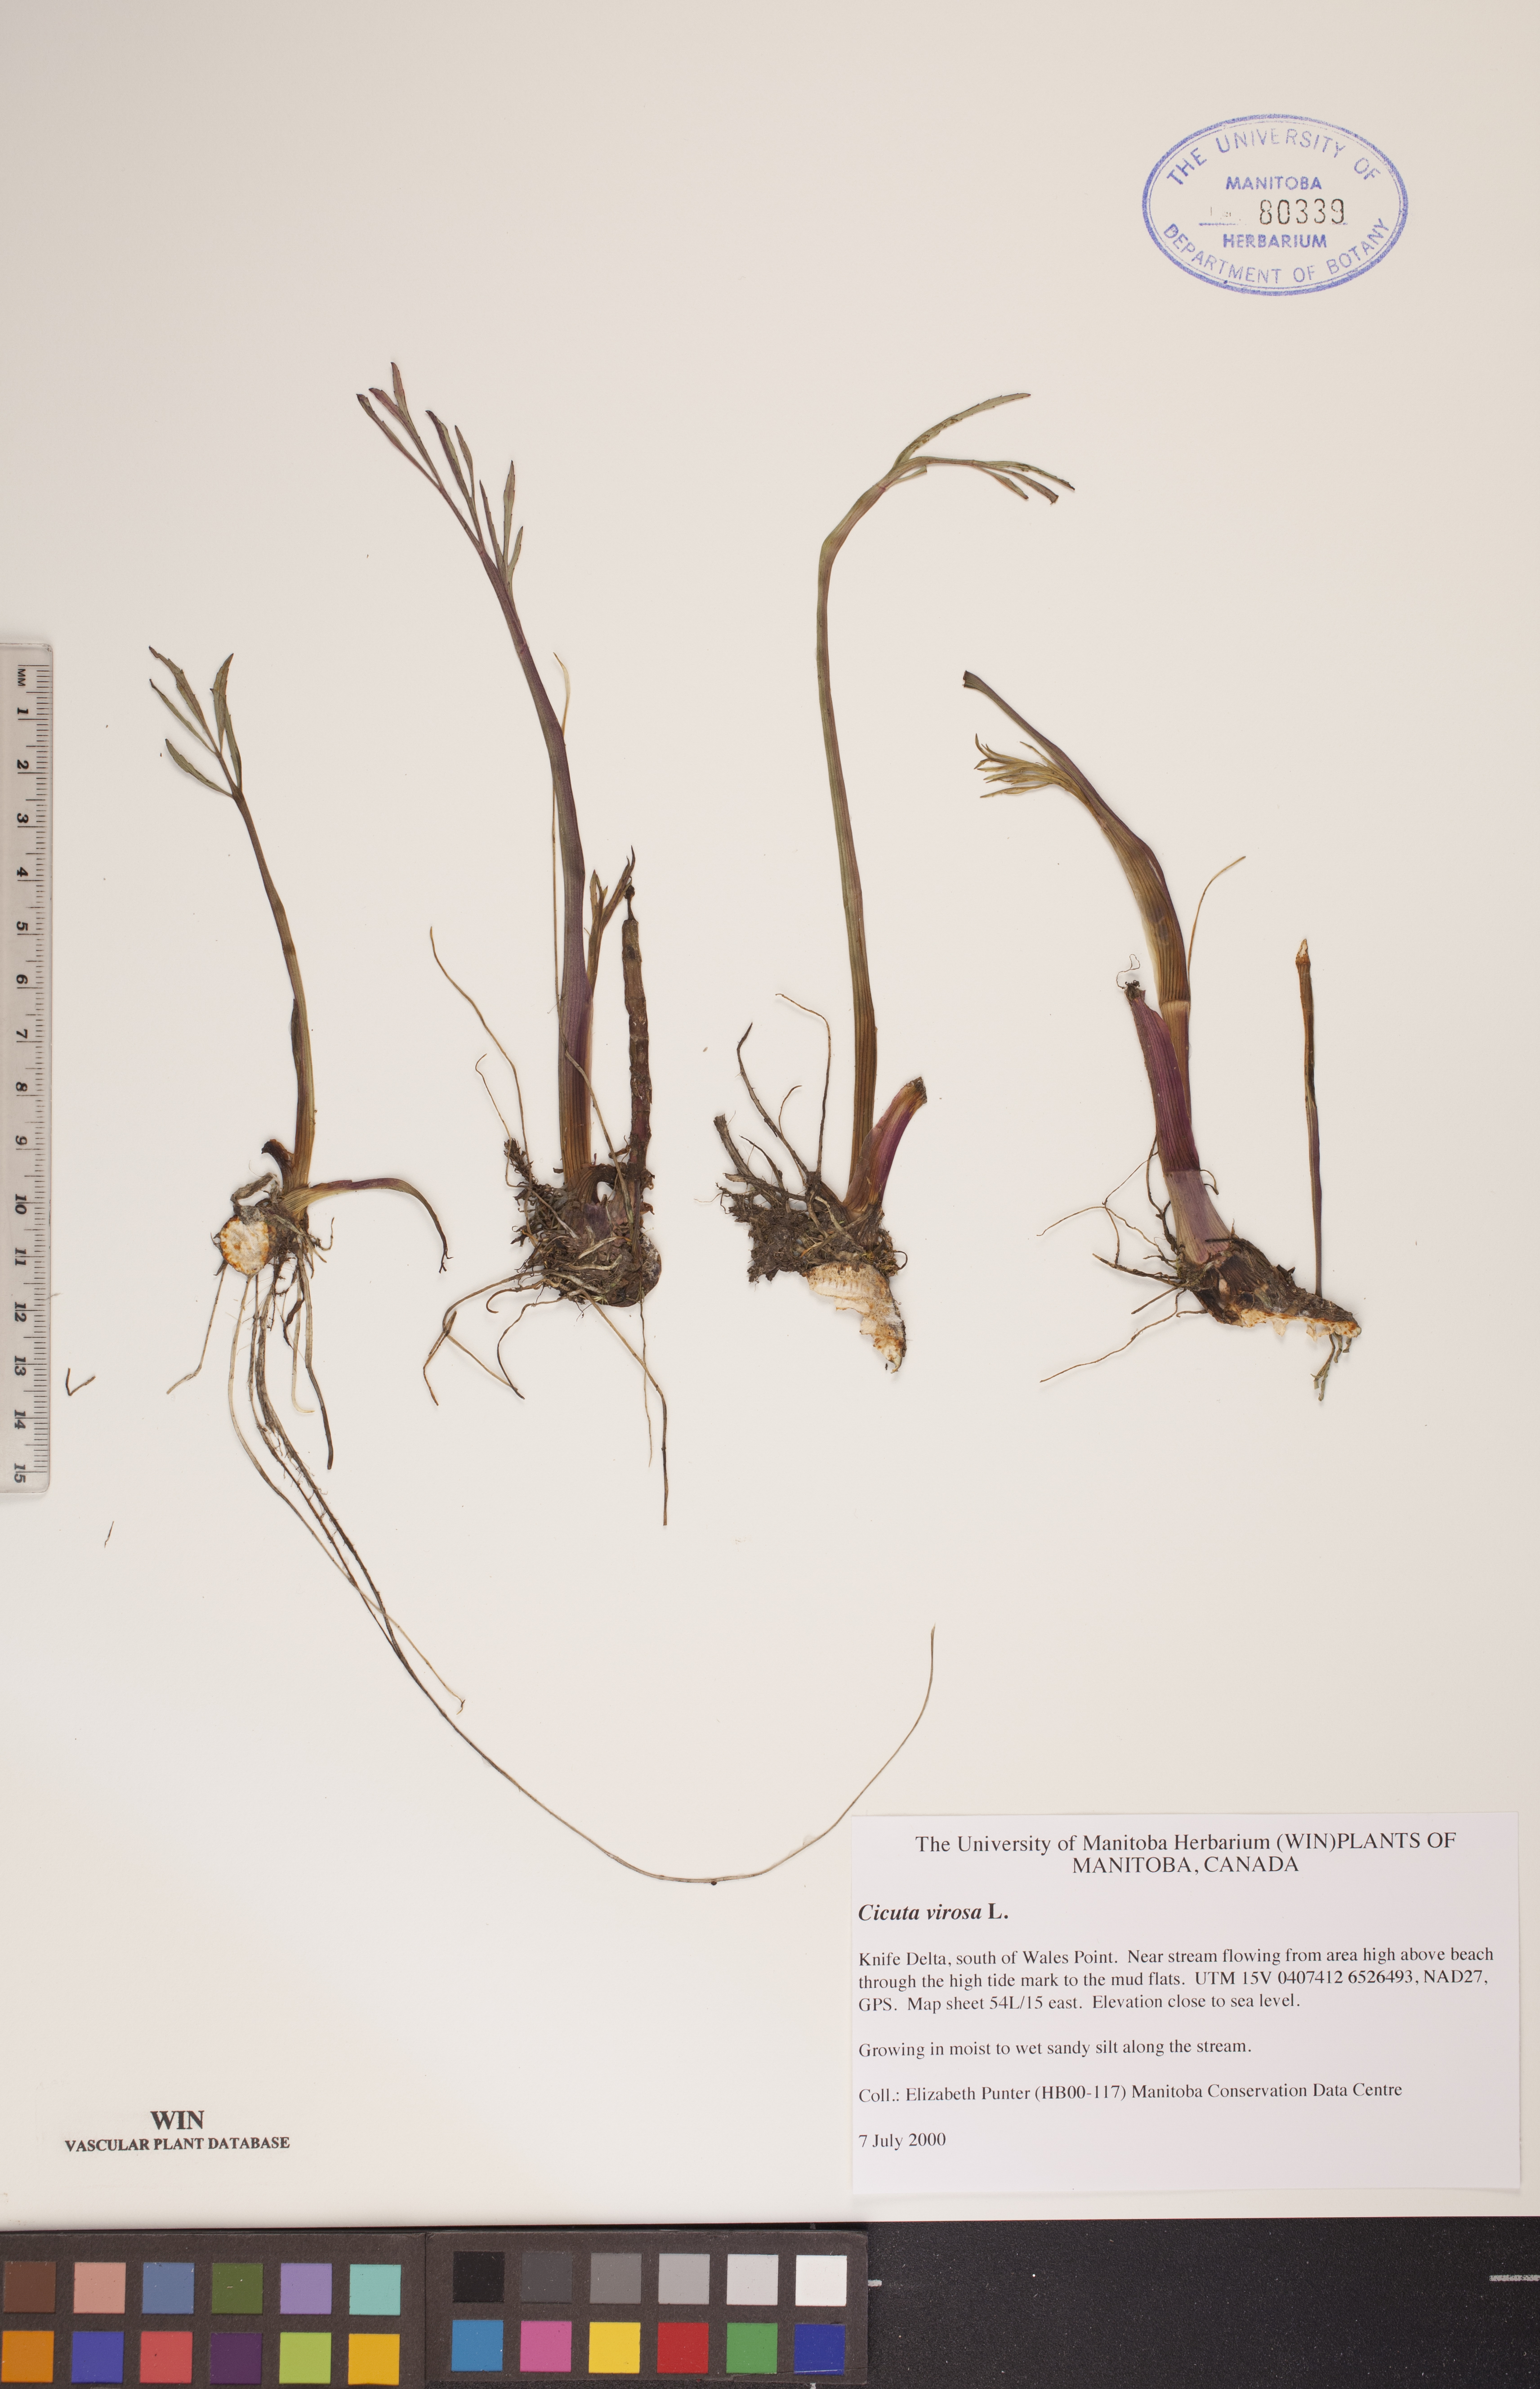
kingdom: Plantae
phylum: Tracheophyta
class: Magnoliopsida
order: Apiales
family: Apiaceae
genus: Cicuta
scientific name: Cicuta virosa
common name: Cowbane
